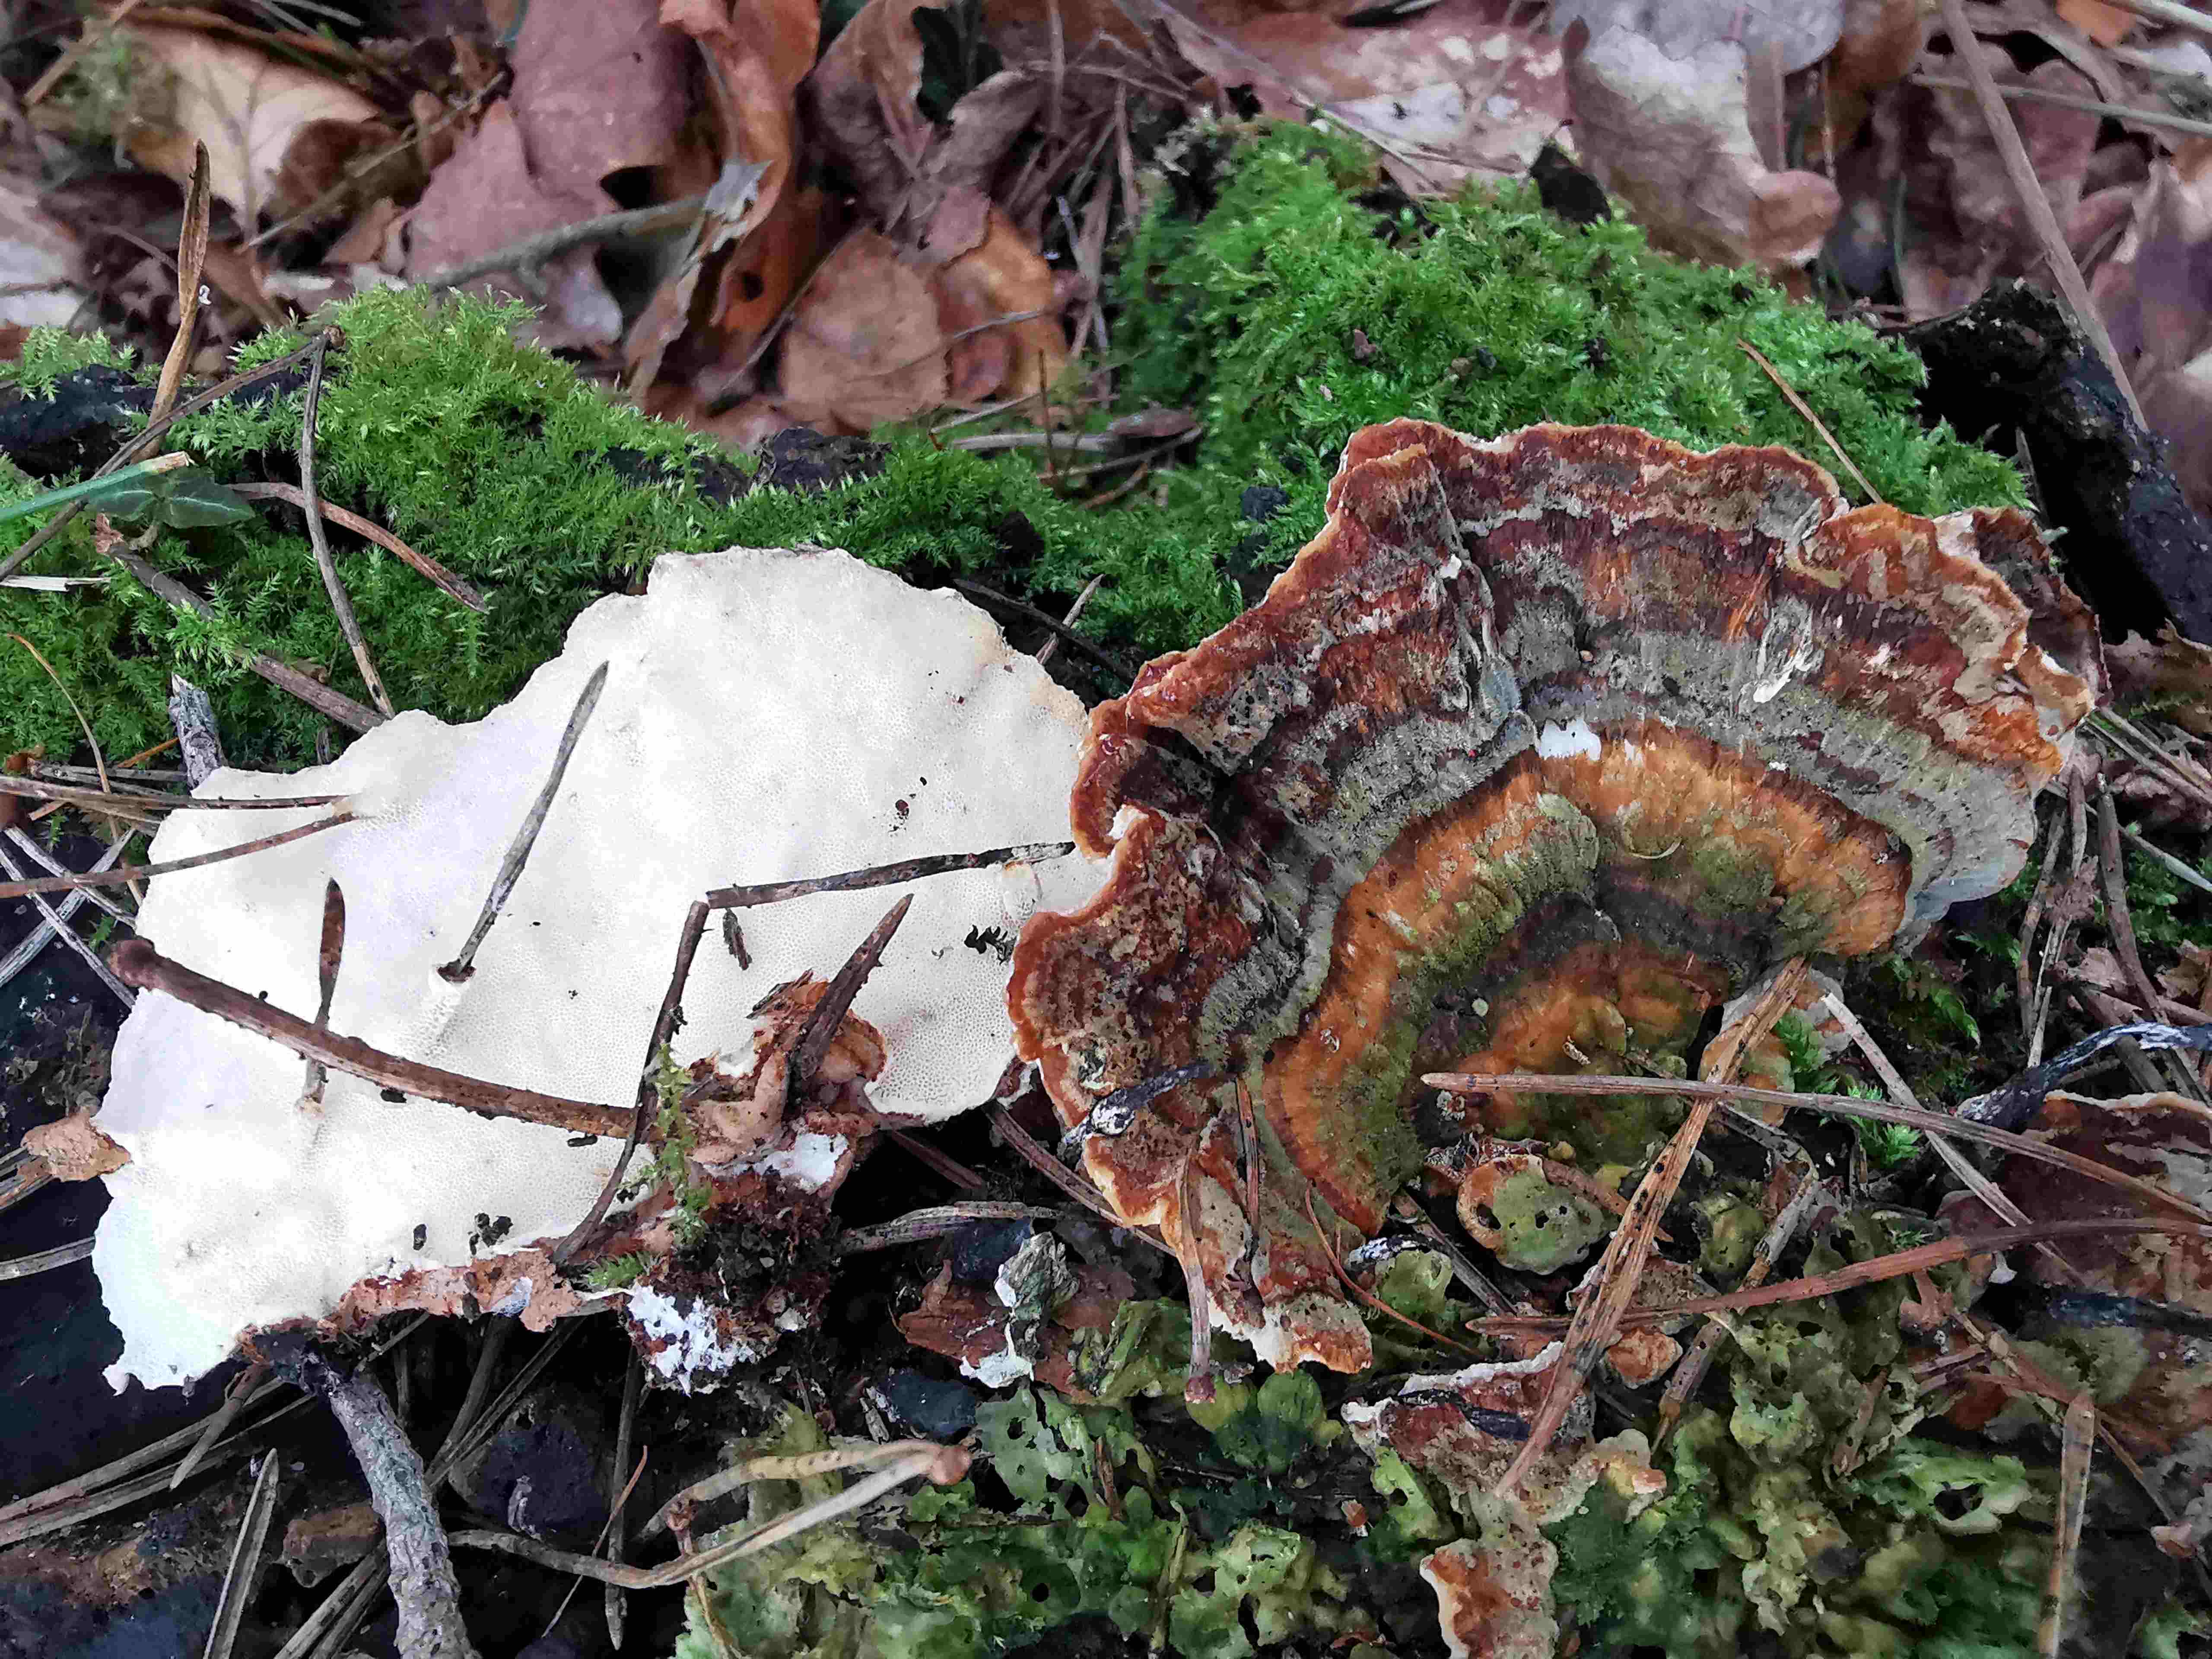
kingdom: Fungi
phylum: Basidiomycota
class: Agaricomycetes
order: Polyporales
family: Polyporaceae
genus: Trametes
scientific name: Trametes versicolor
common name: broget læderporesvamp
